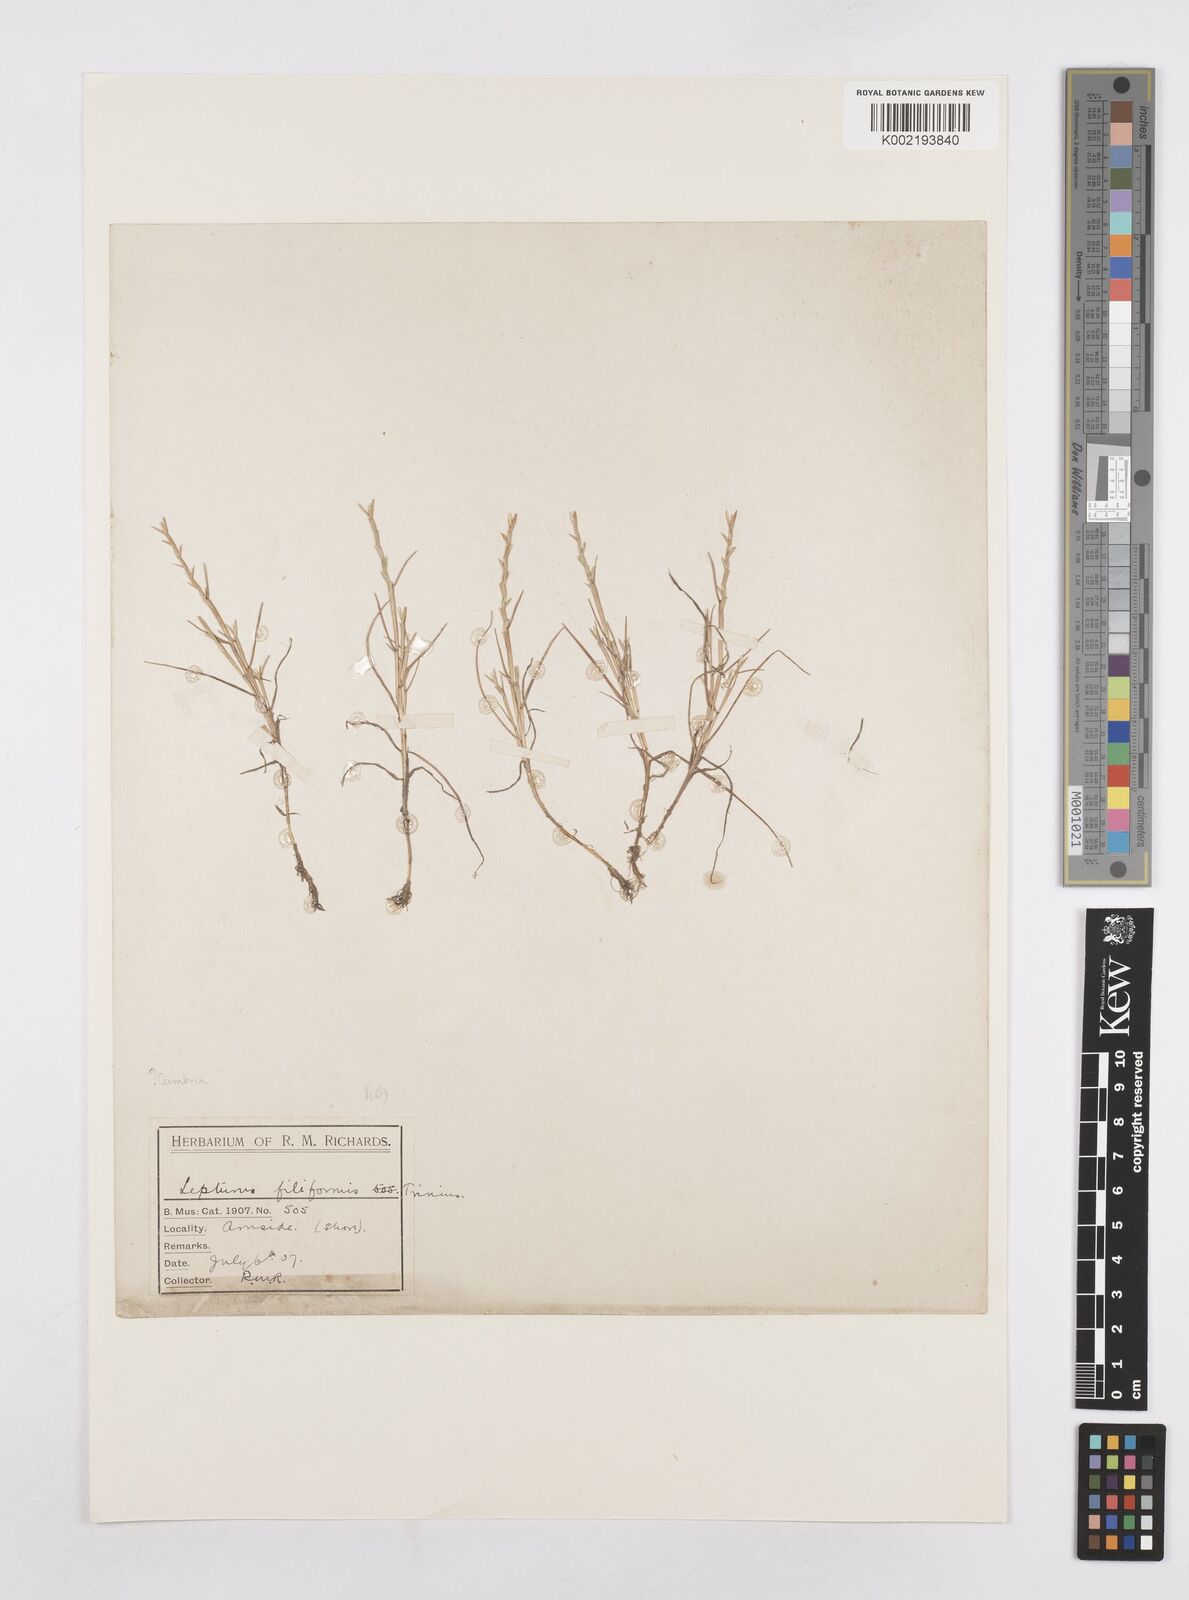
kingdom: Plantae
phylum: Tracheophyta
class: Liliopsida
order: Poales
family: Poaceae
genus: Parapholis
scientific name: Parapholis strigosa
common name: Hard-grass
